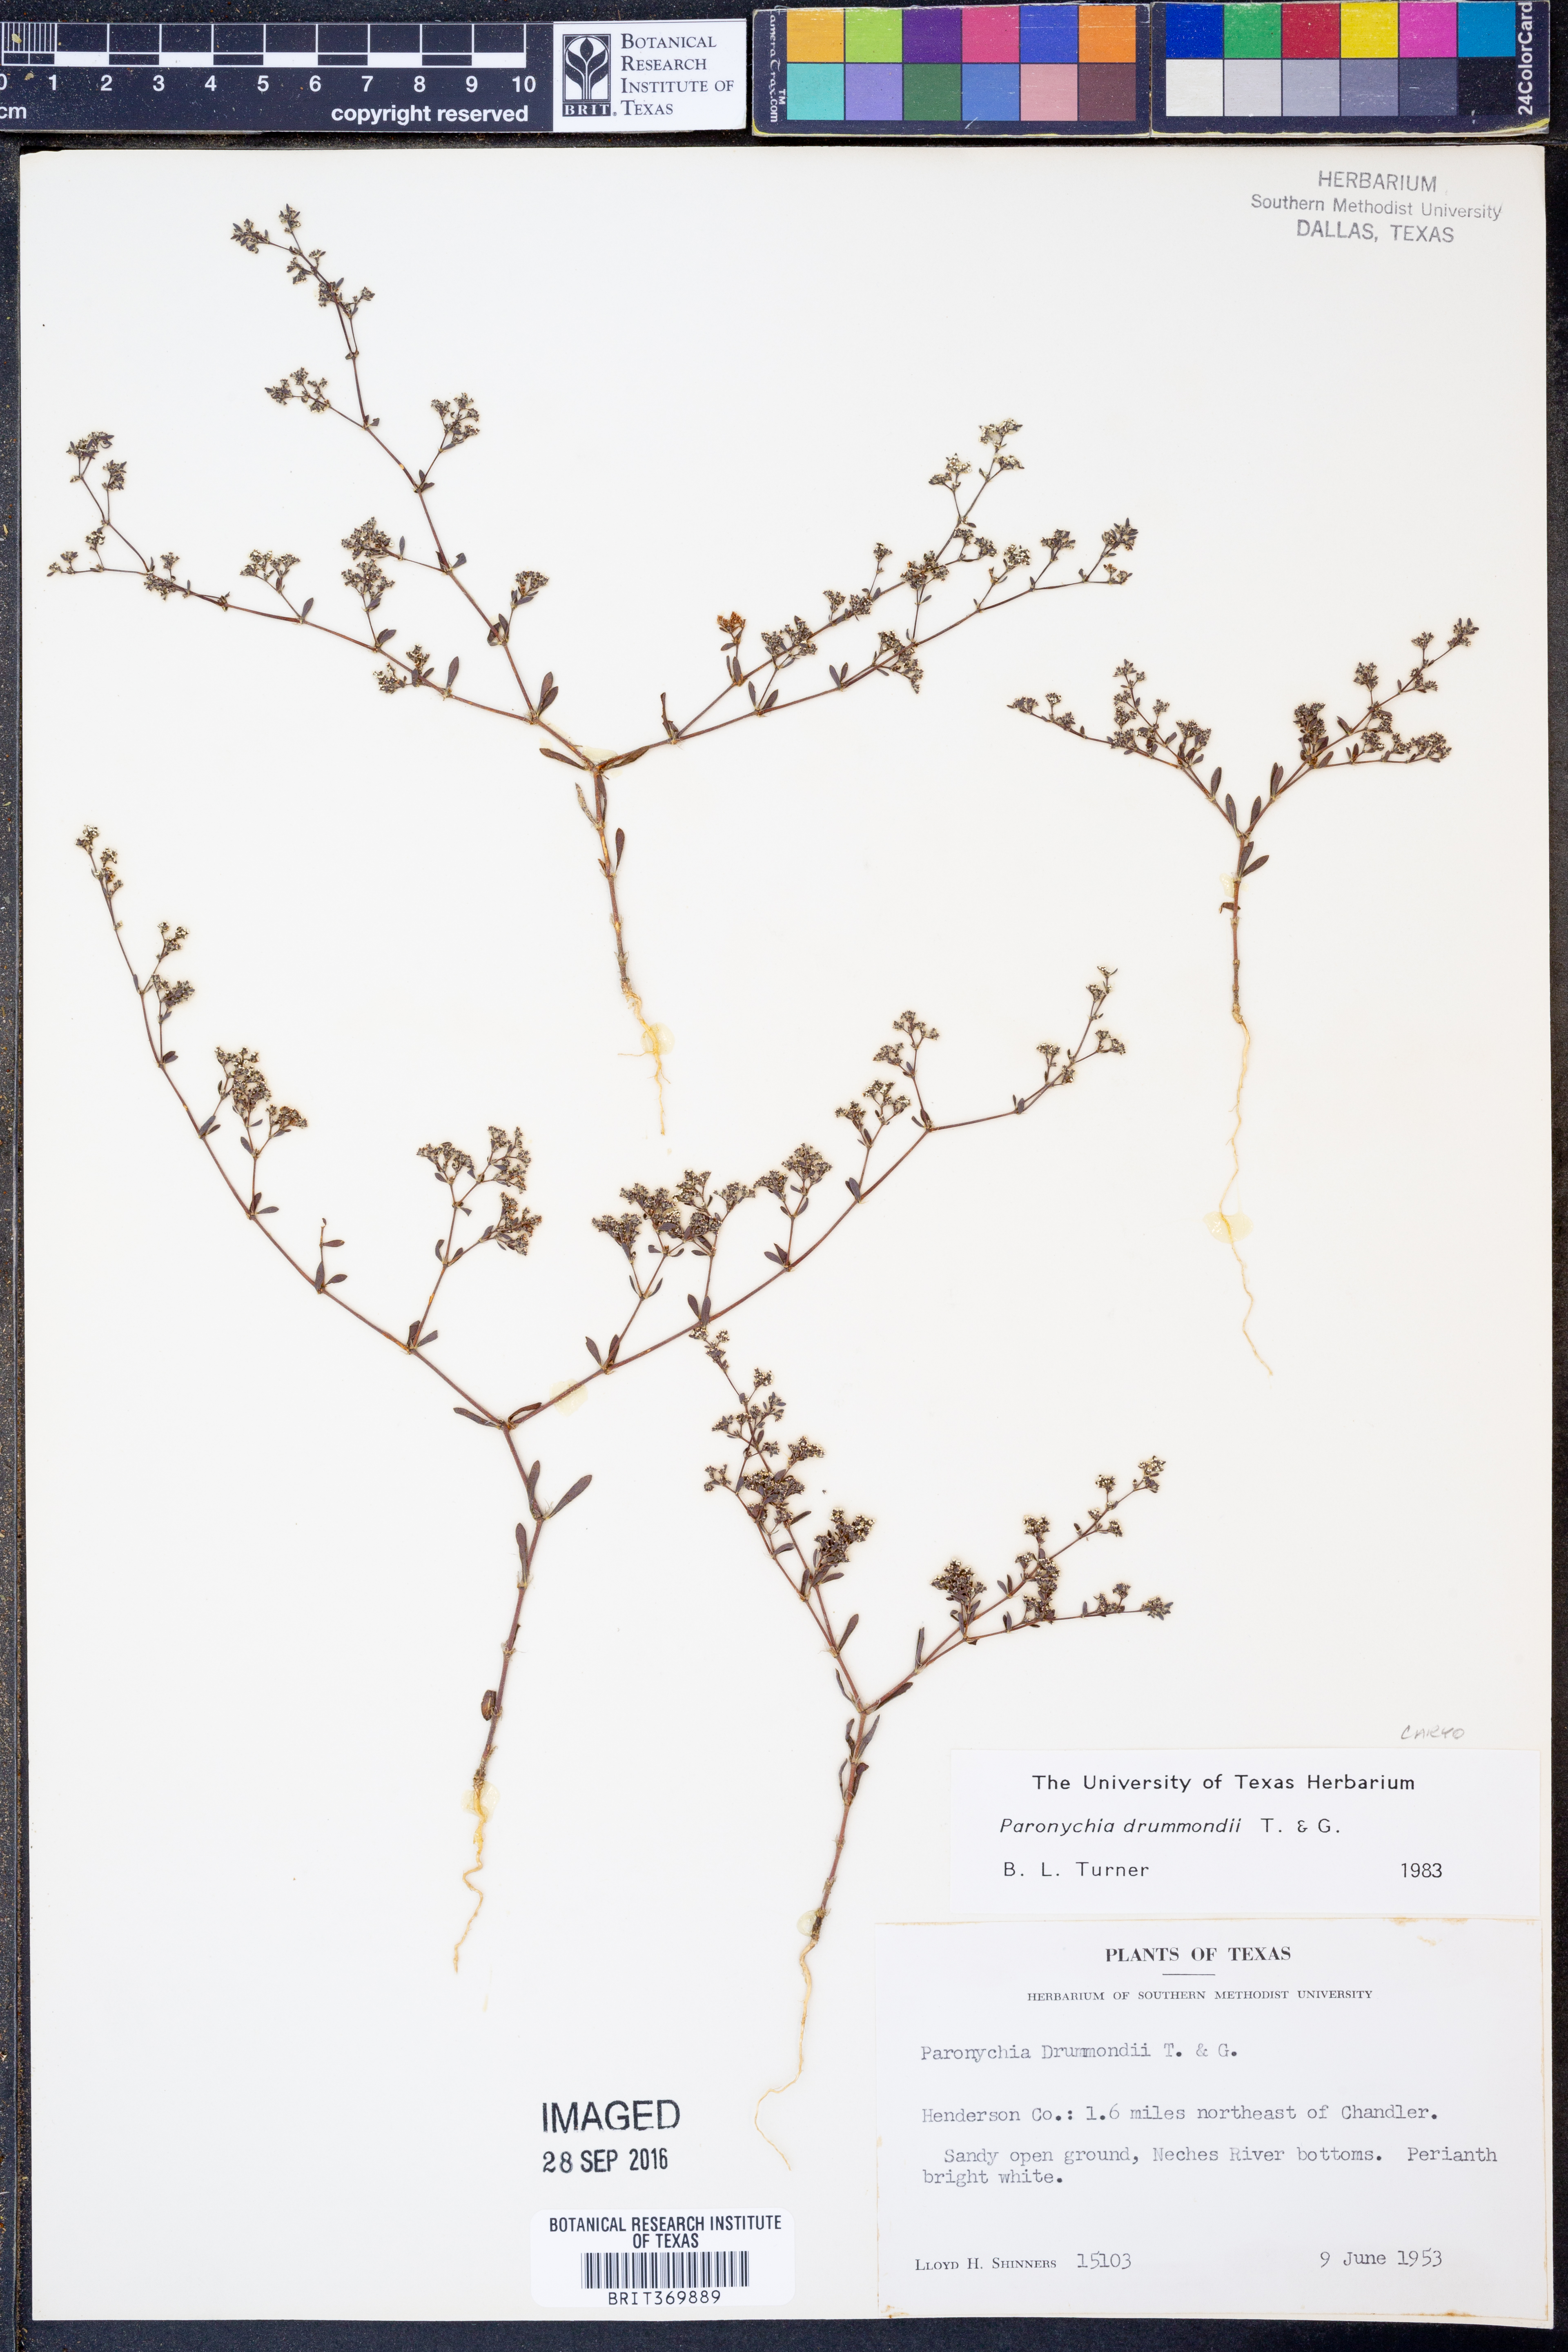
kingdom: Plantae
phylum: Tracheophyta
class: Magnoliopsida
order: Caryophyllales
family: Caryophyllaceae
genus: Paronychia
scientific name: Paronychia drummondii
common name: Drummond's nailwort
